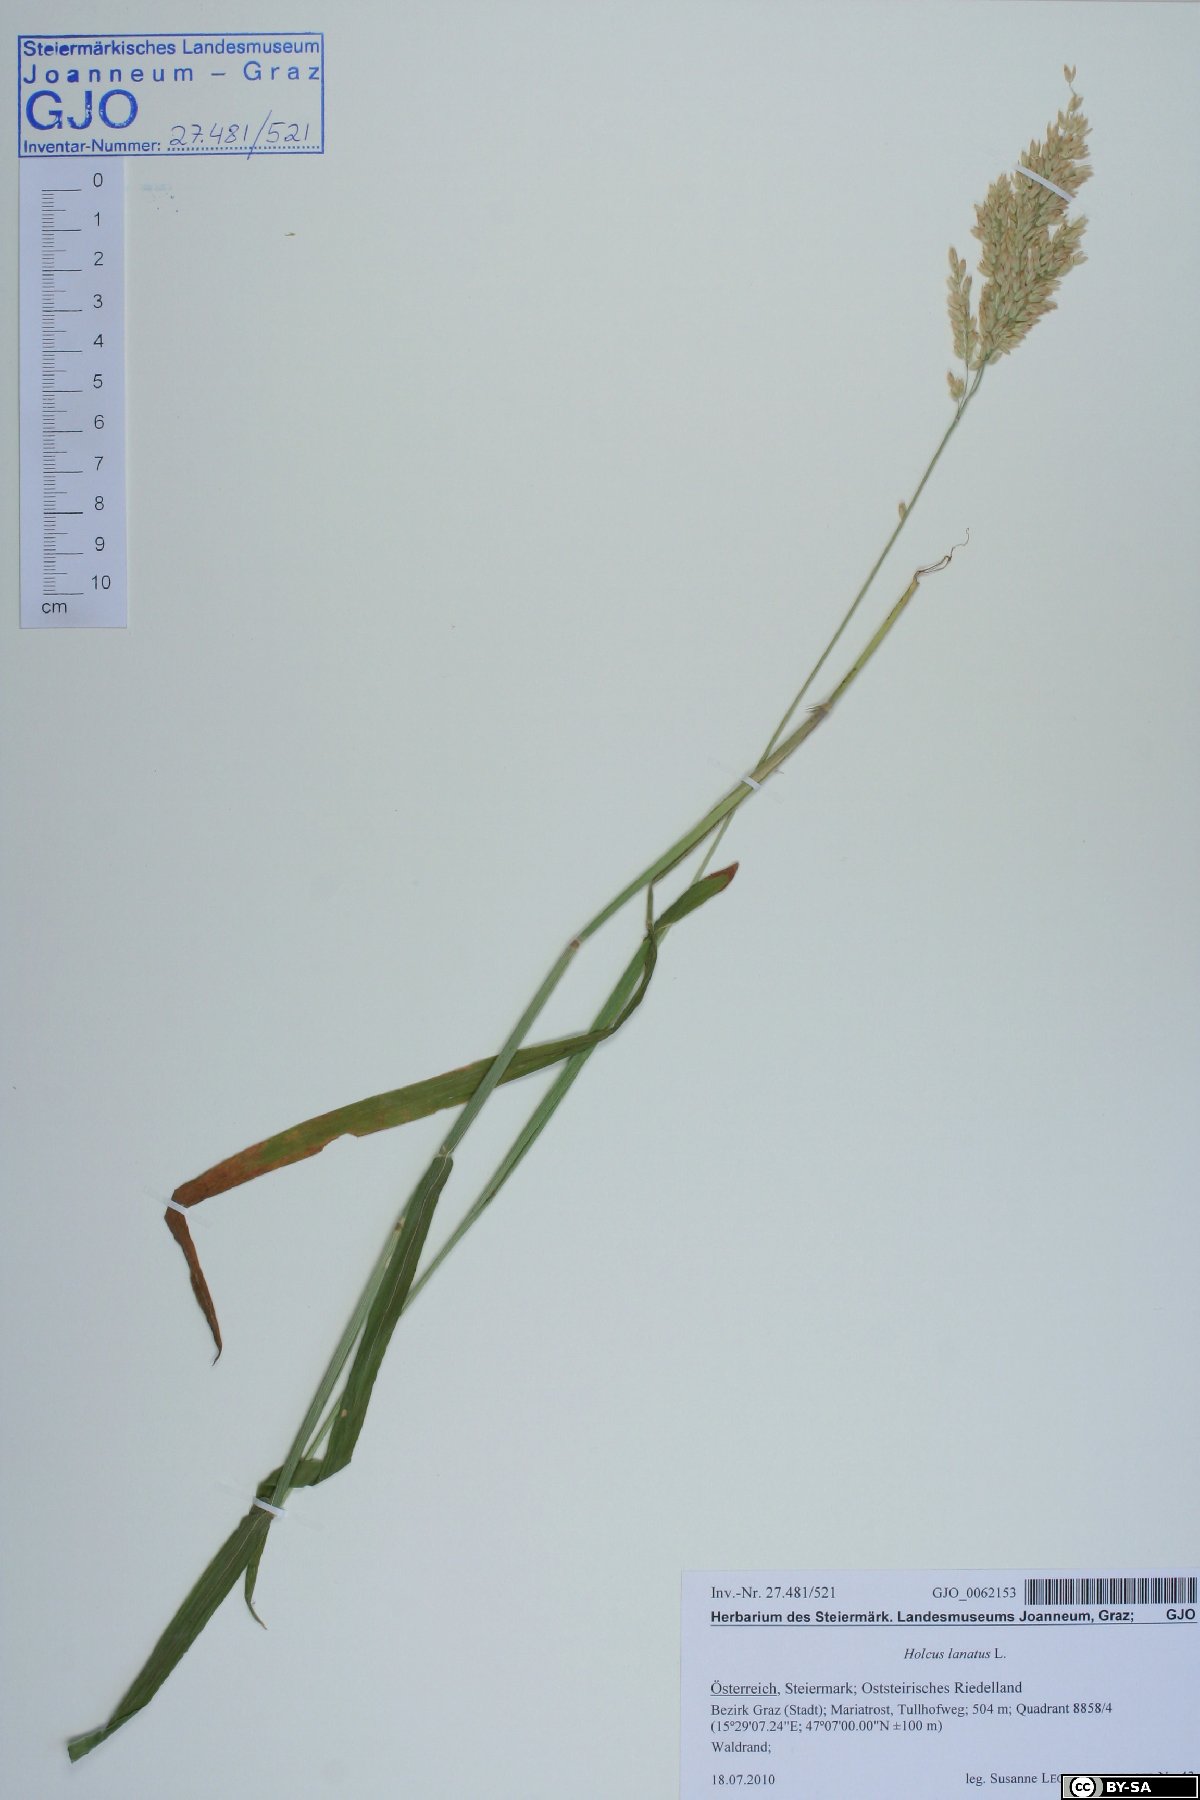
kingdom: Plantae
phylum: Tracheophyta
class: Liliopsida
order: Poales
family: Poaceae
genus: Holcus
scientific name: Holcus lanatus
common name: Yorkshire-fog
